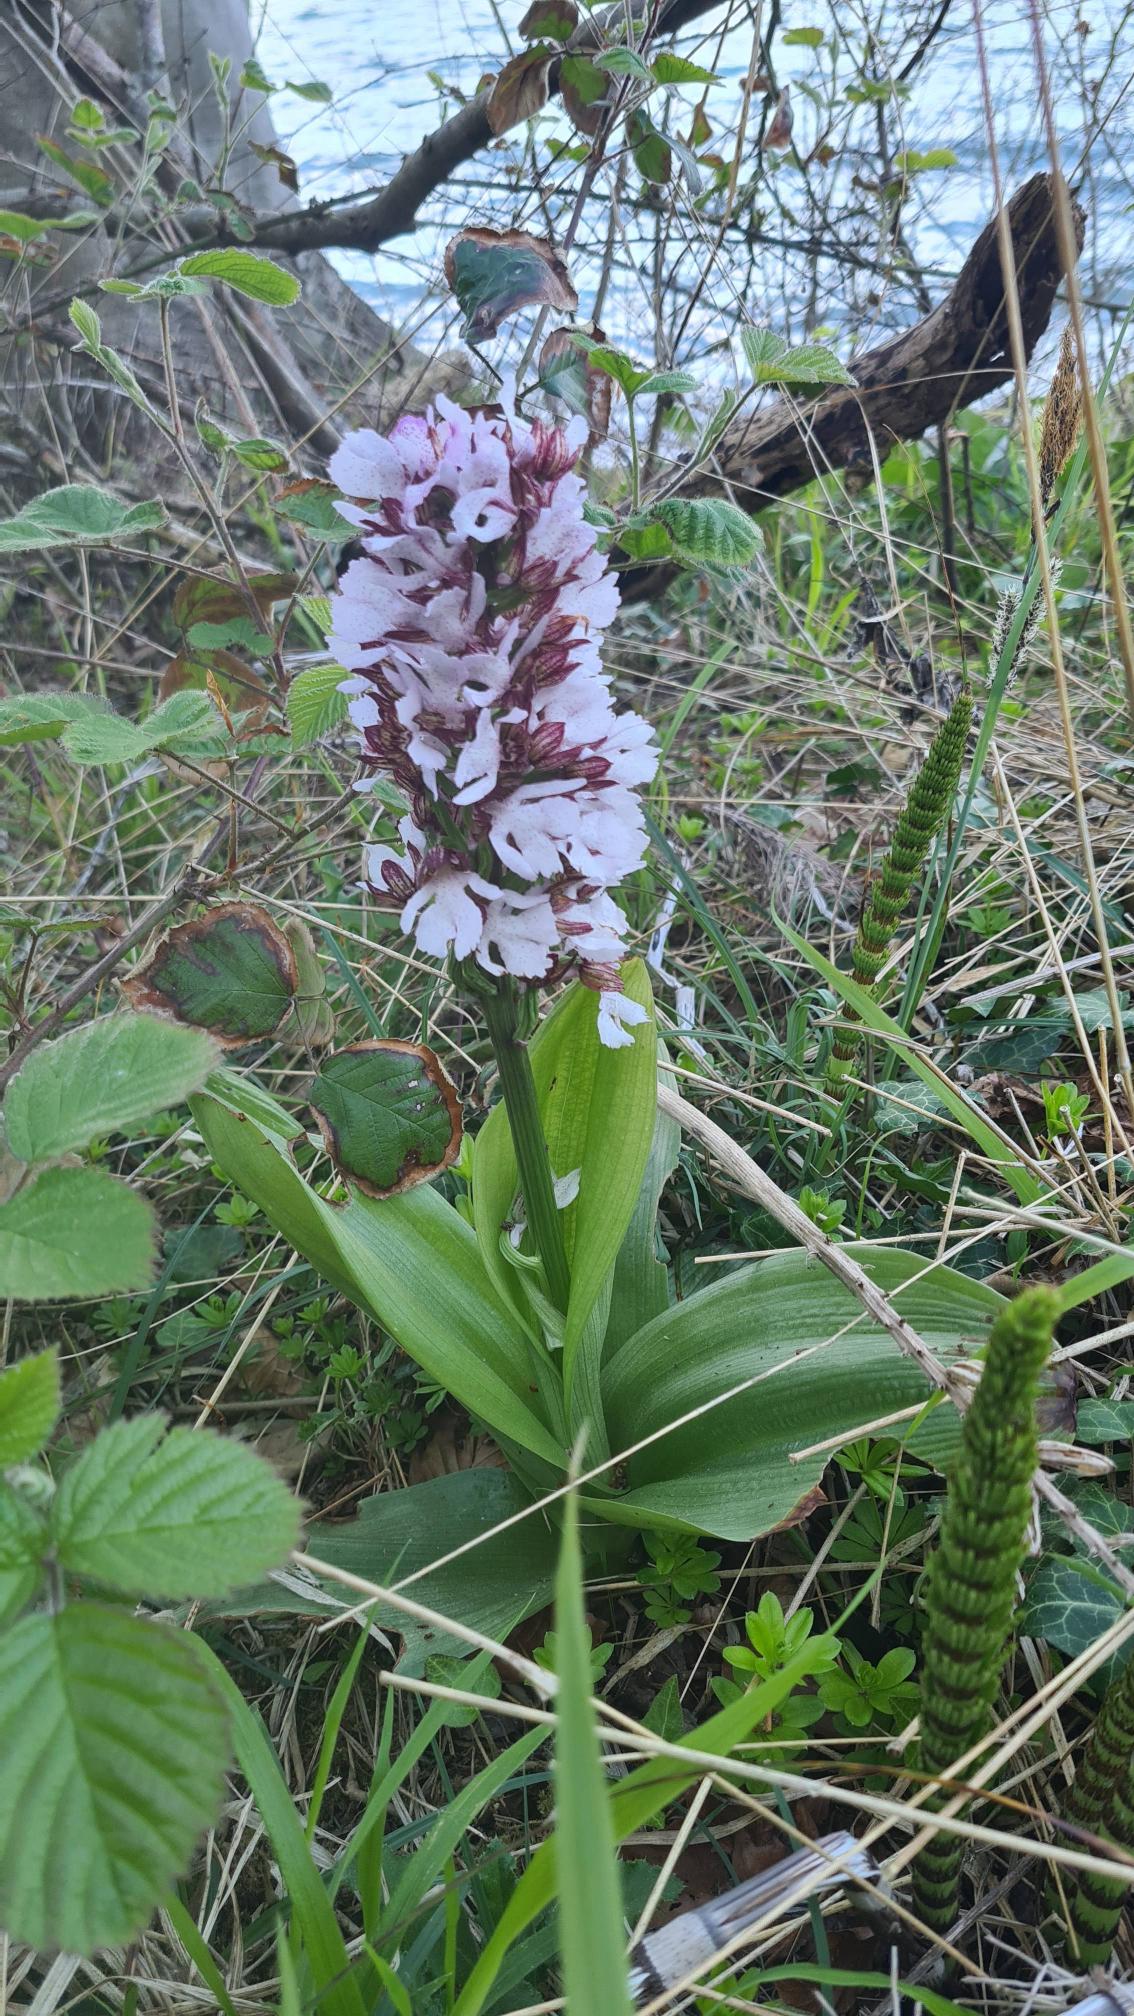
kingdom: Plantae
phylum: Tracheophyta
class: Liliopsida
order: Asparagales
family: Orchidaceae
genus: Orchis
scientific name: Orchis purpurea
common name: Stor gøgeurt
